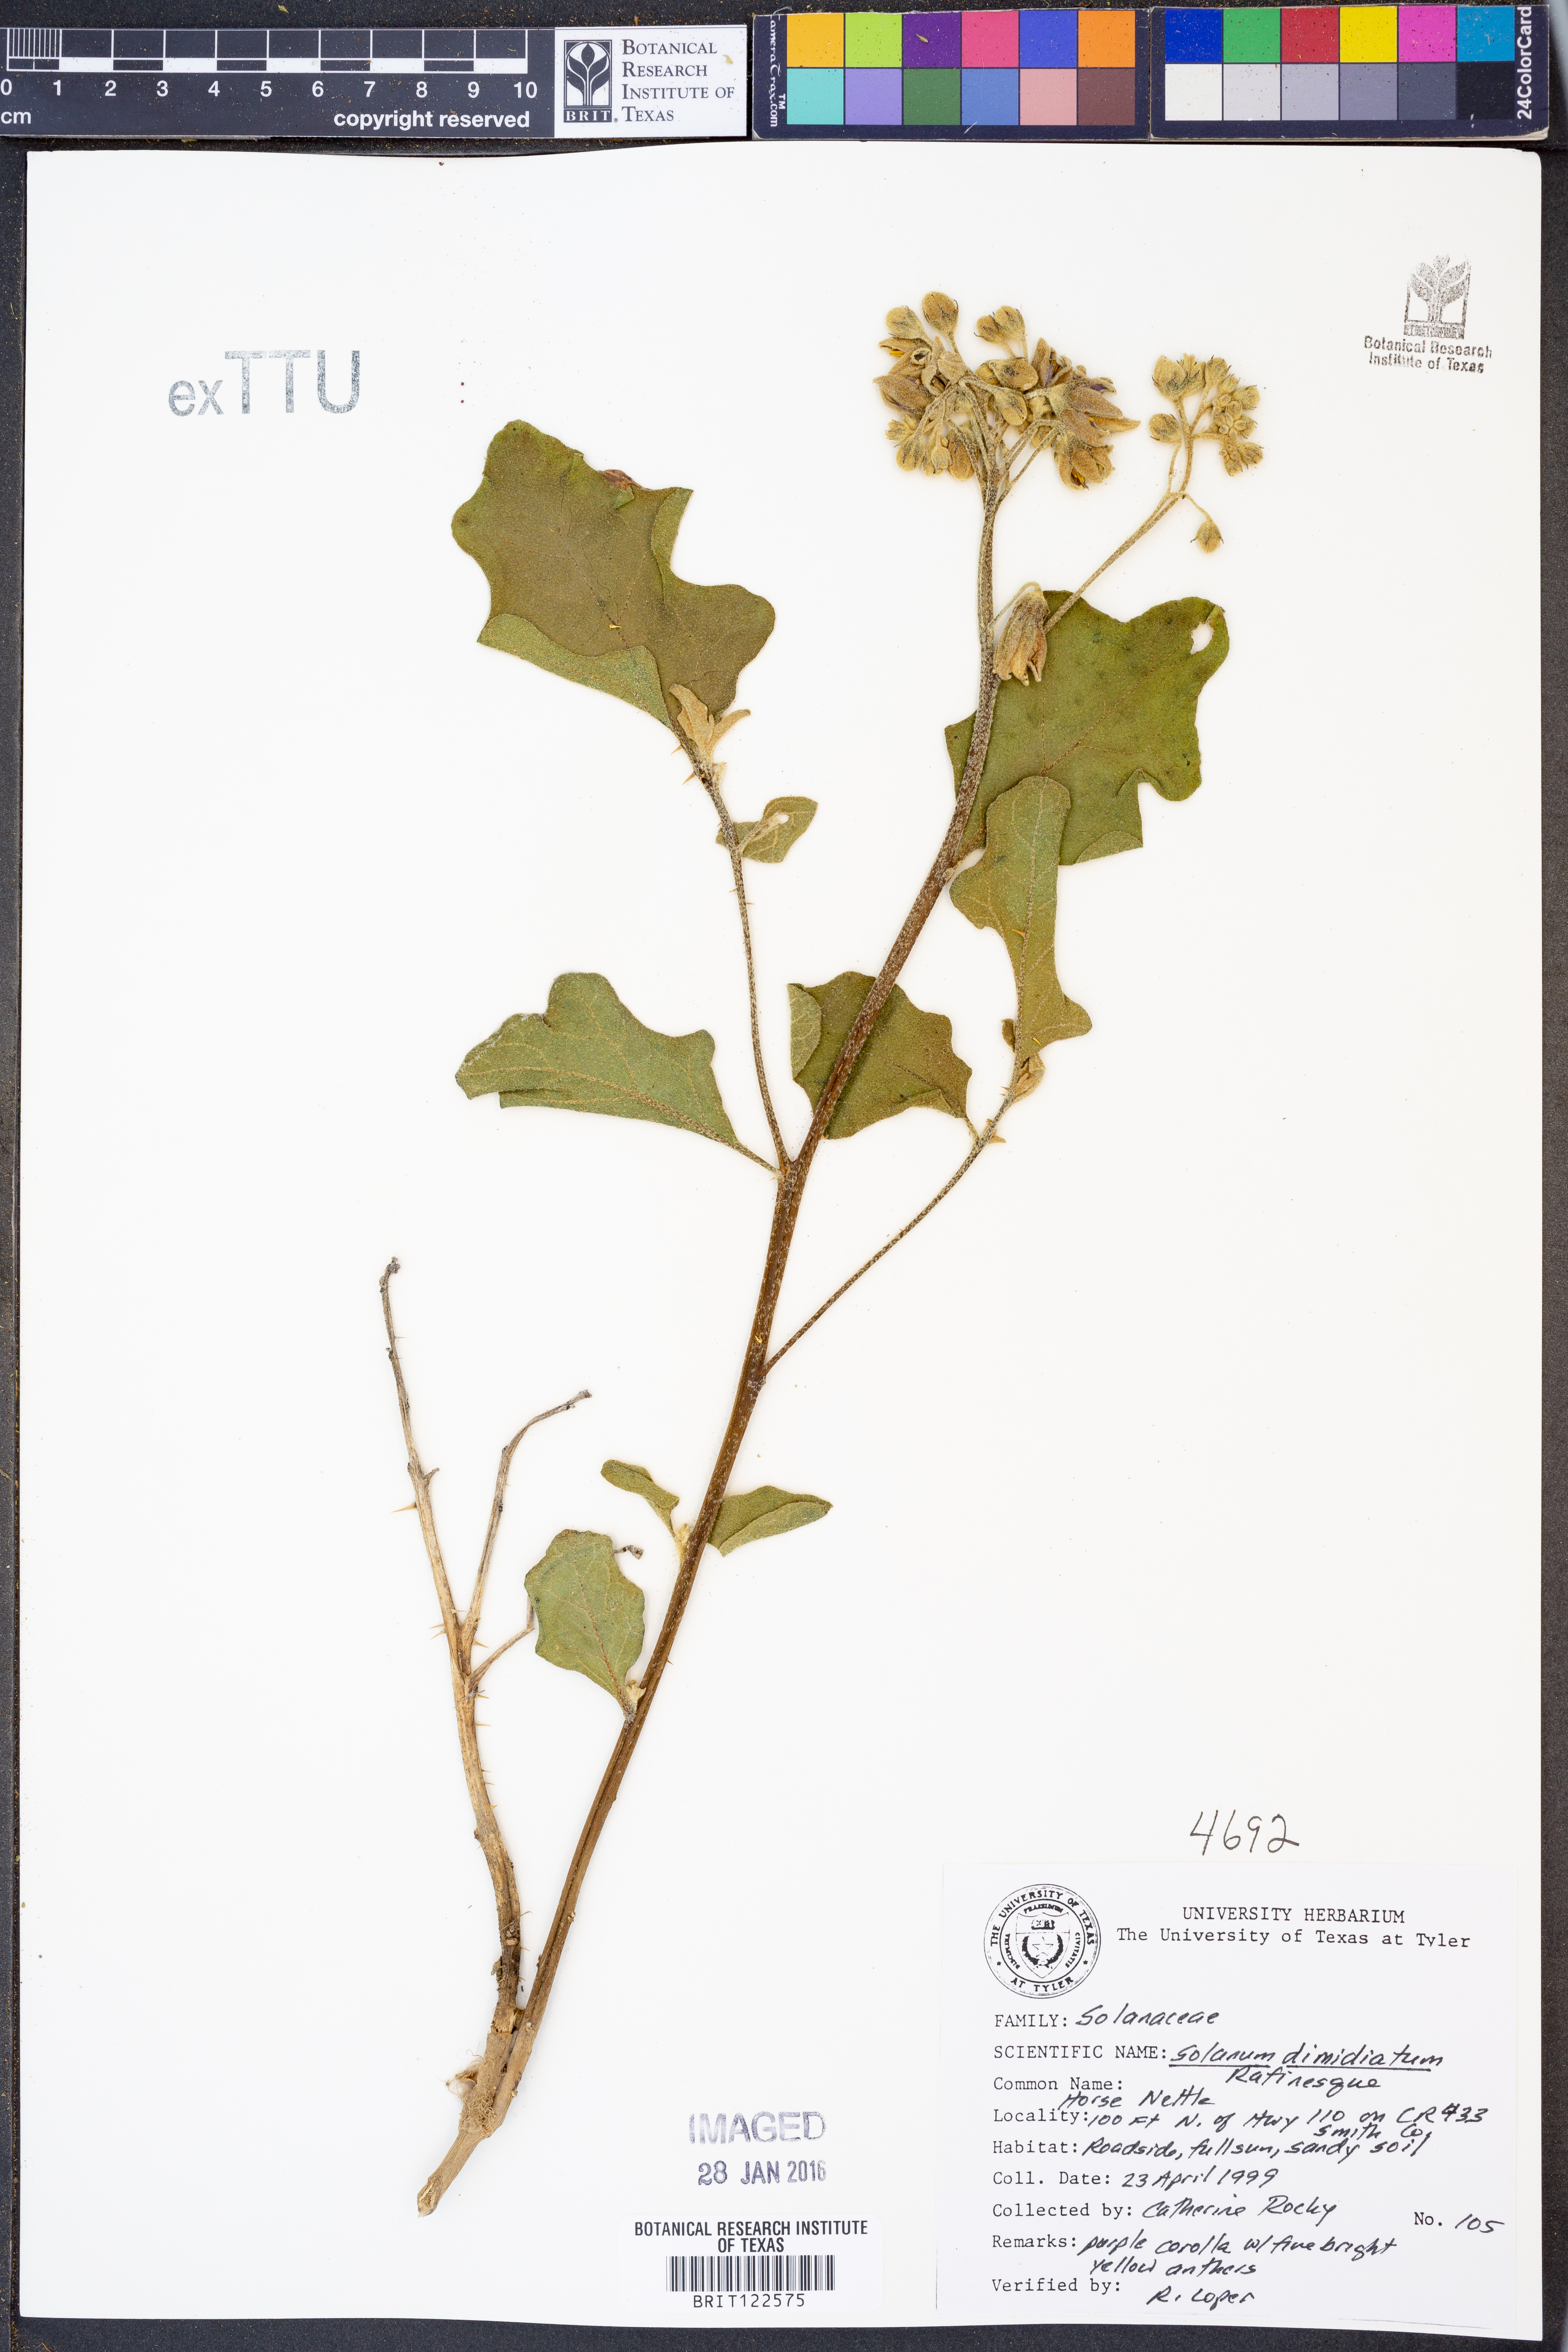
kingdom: Plantae
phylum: Tracheophyta
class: Magnoliopsida
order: Solanales
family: Solanaceae
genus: Solanum
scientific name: Solanum dimidiatum
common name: Carolina horse-nettle
